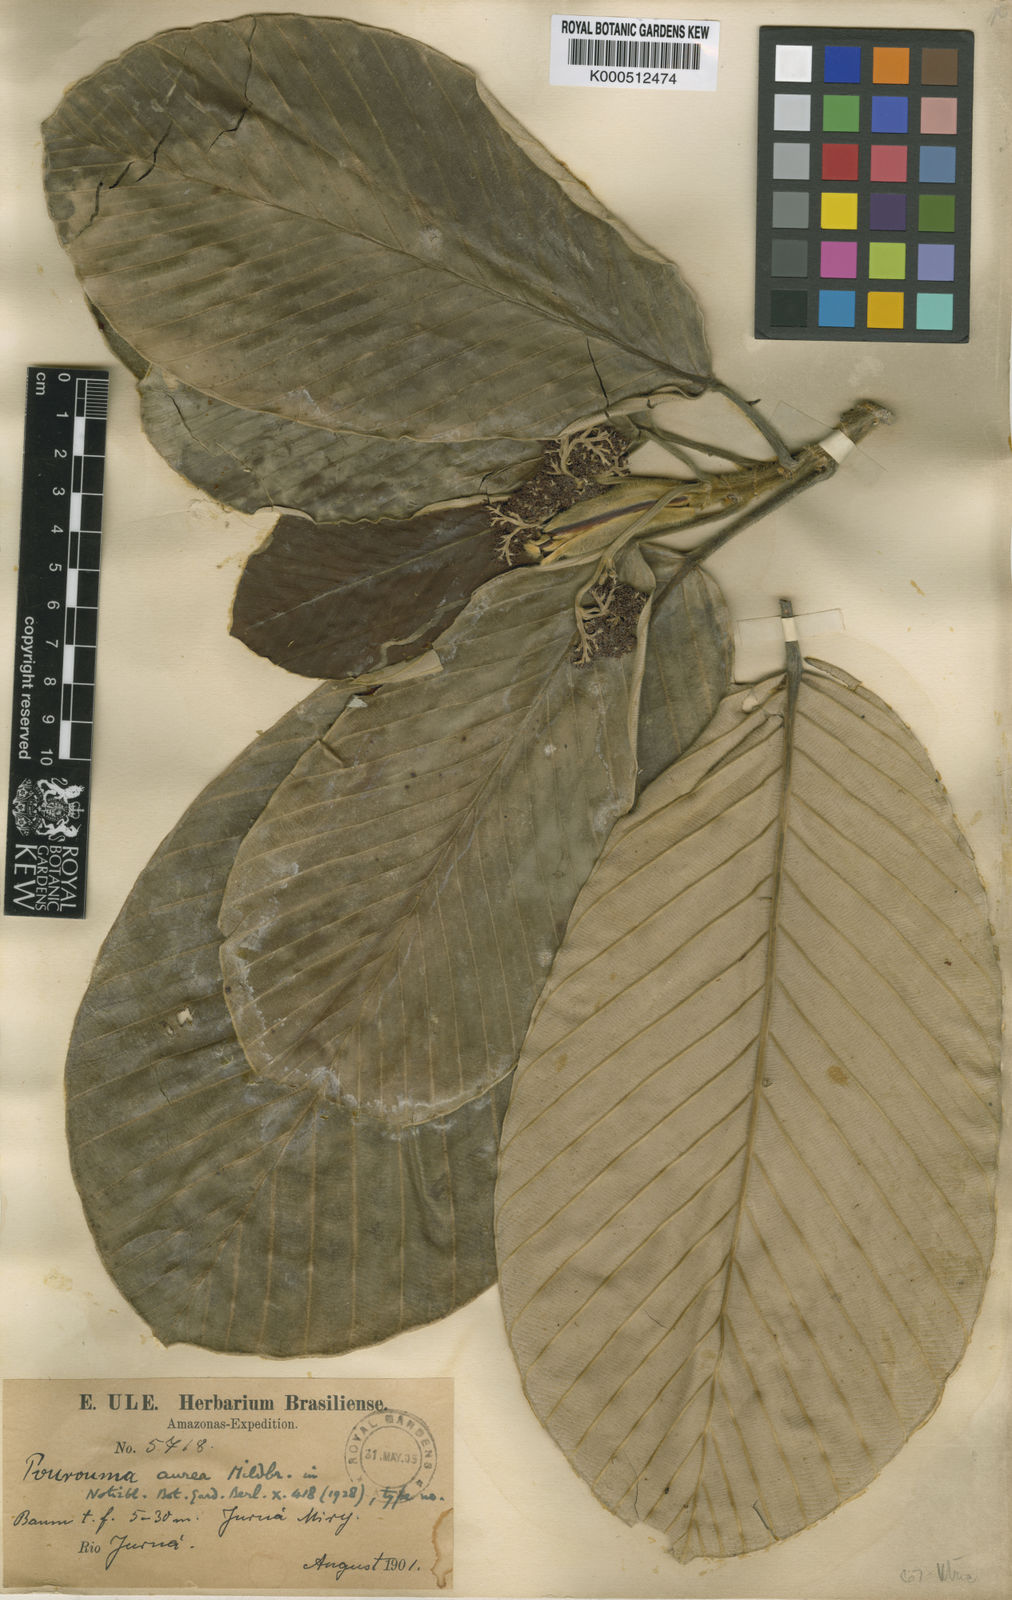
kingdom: Plantae
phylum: Tracheophyta
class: Magnoliopsida
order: Rosales
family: Urticaceae
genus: Pourouma
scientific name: Pourouma minor
